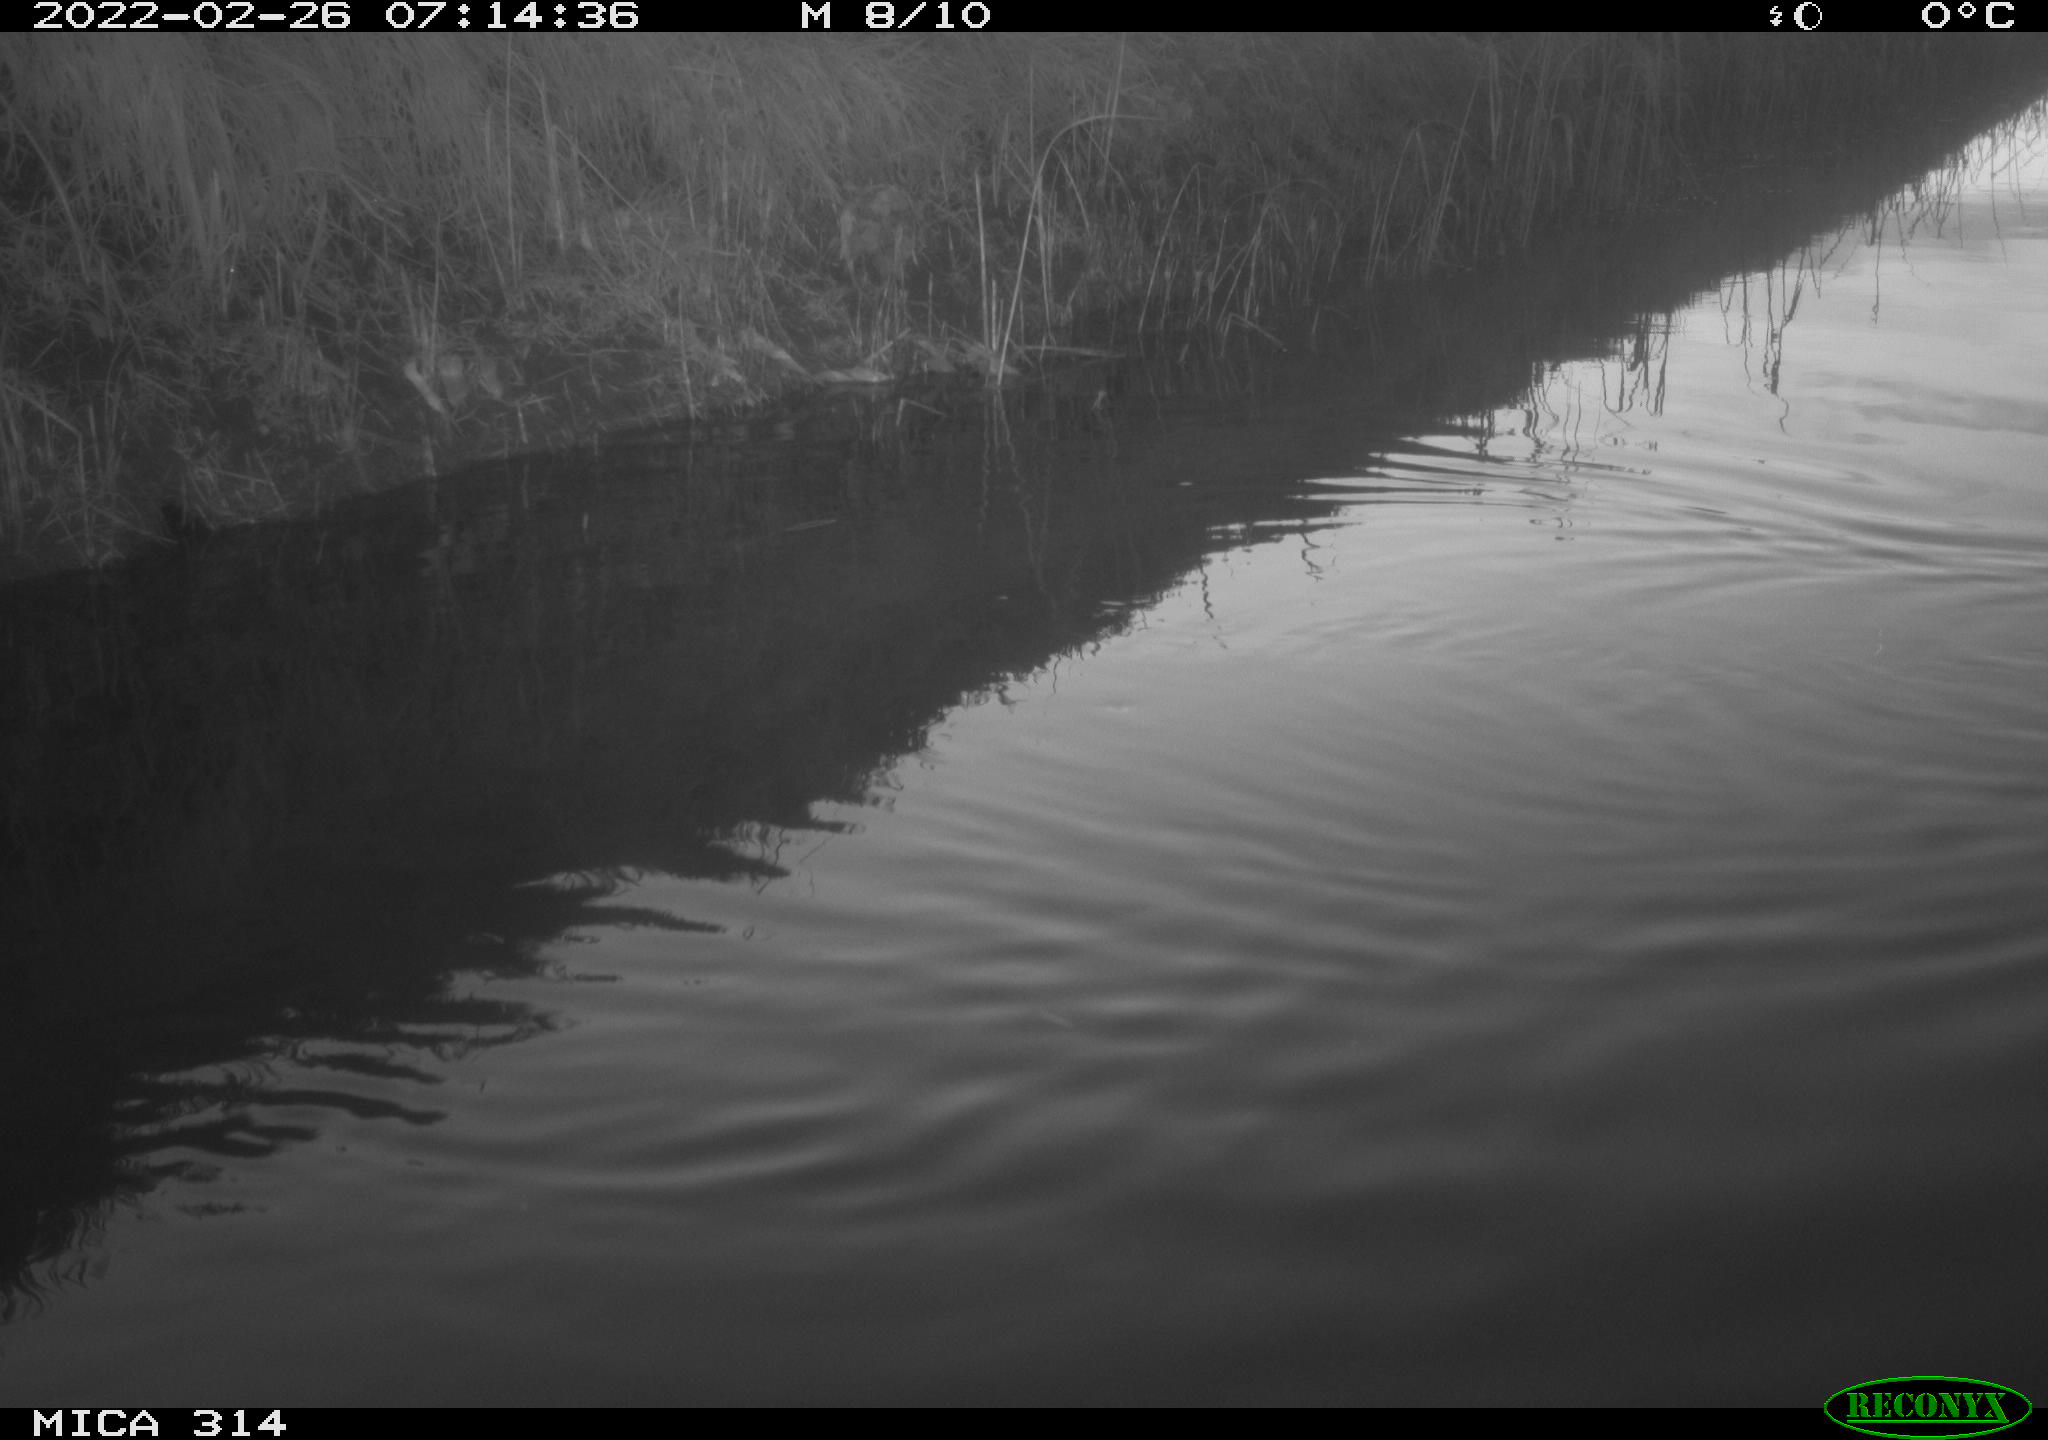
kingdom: Animalia
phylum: Chordata
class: Aves
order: Gruiformes
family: Rallidae
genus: Gallinula
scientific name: Gallinula chloropus
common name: Common moorhen
